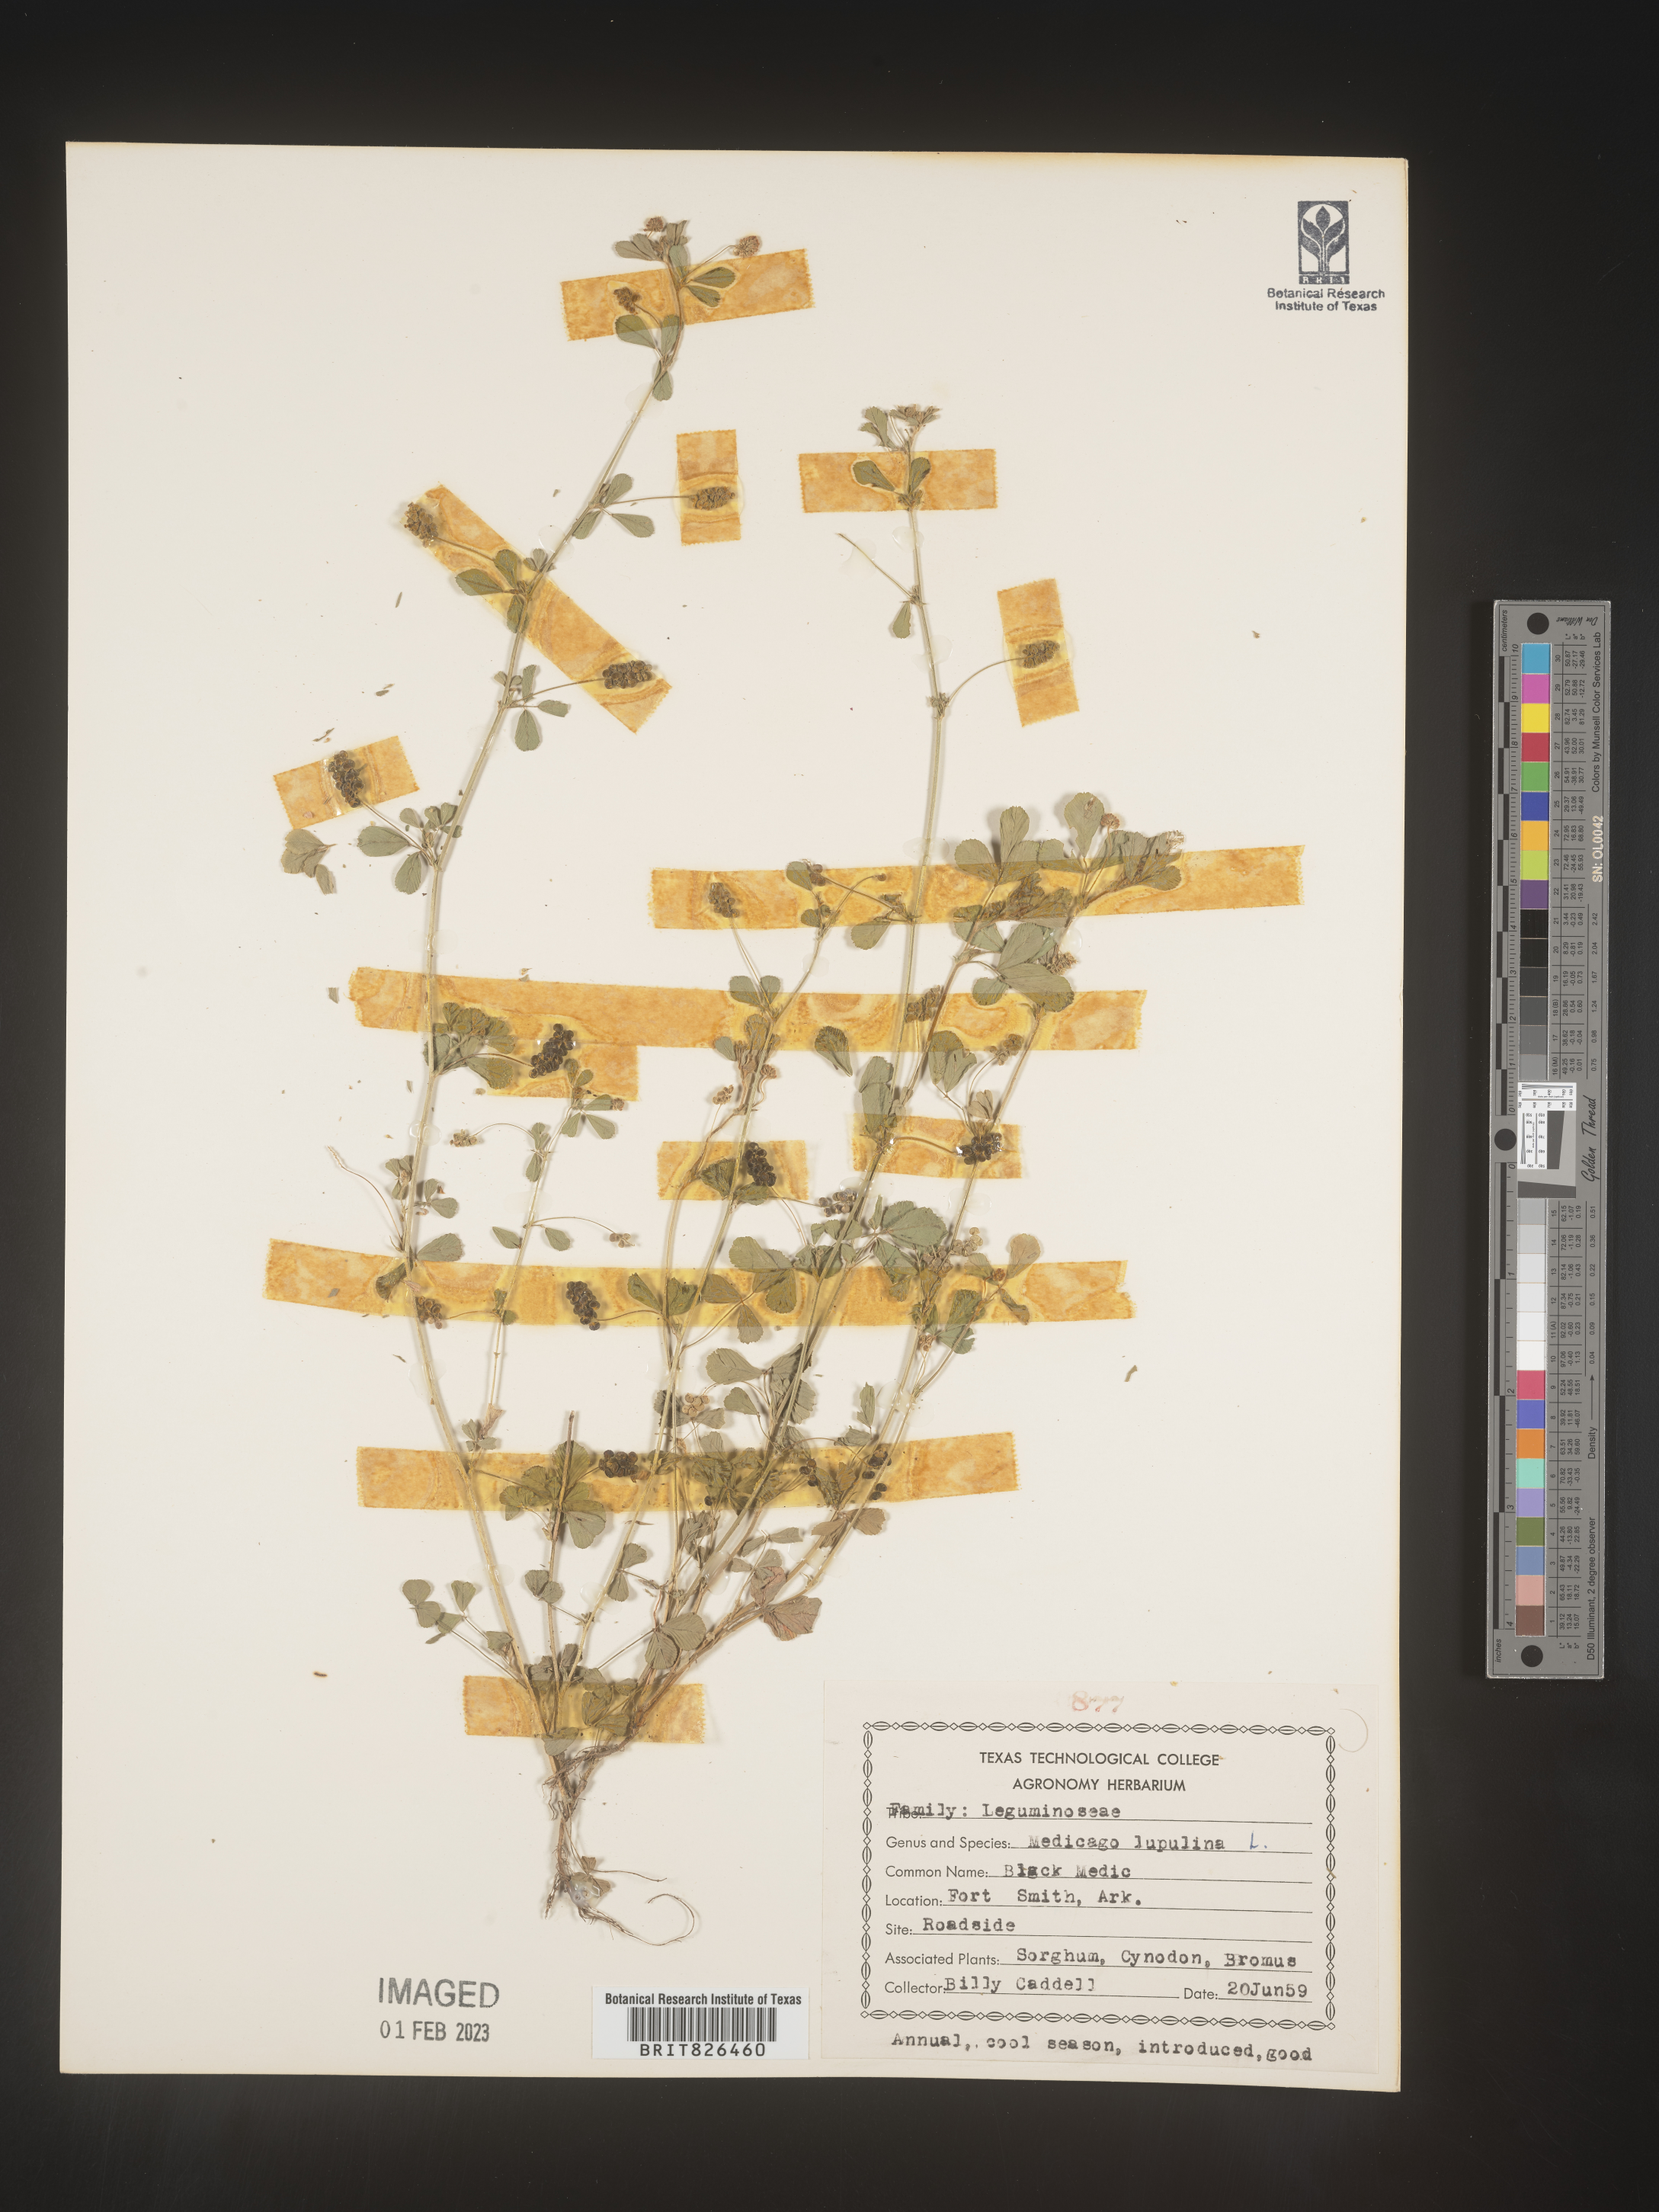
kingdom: Plantae
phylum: Tracheophyta
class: Magnoliopsida
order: Fabales
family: Fabaceae
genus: Medicago
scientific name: Medicago lupulina
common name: Black medick
